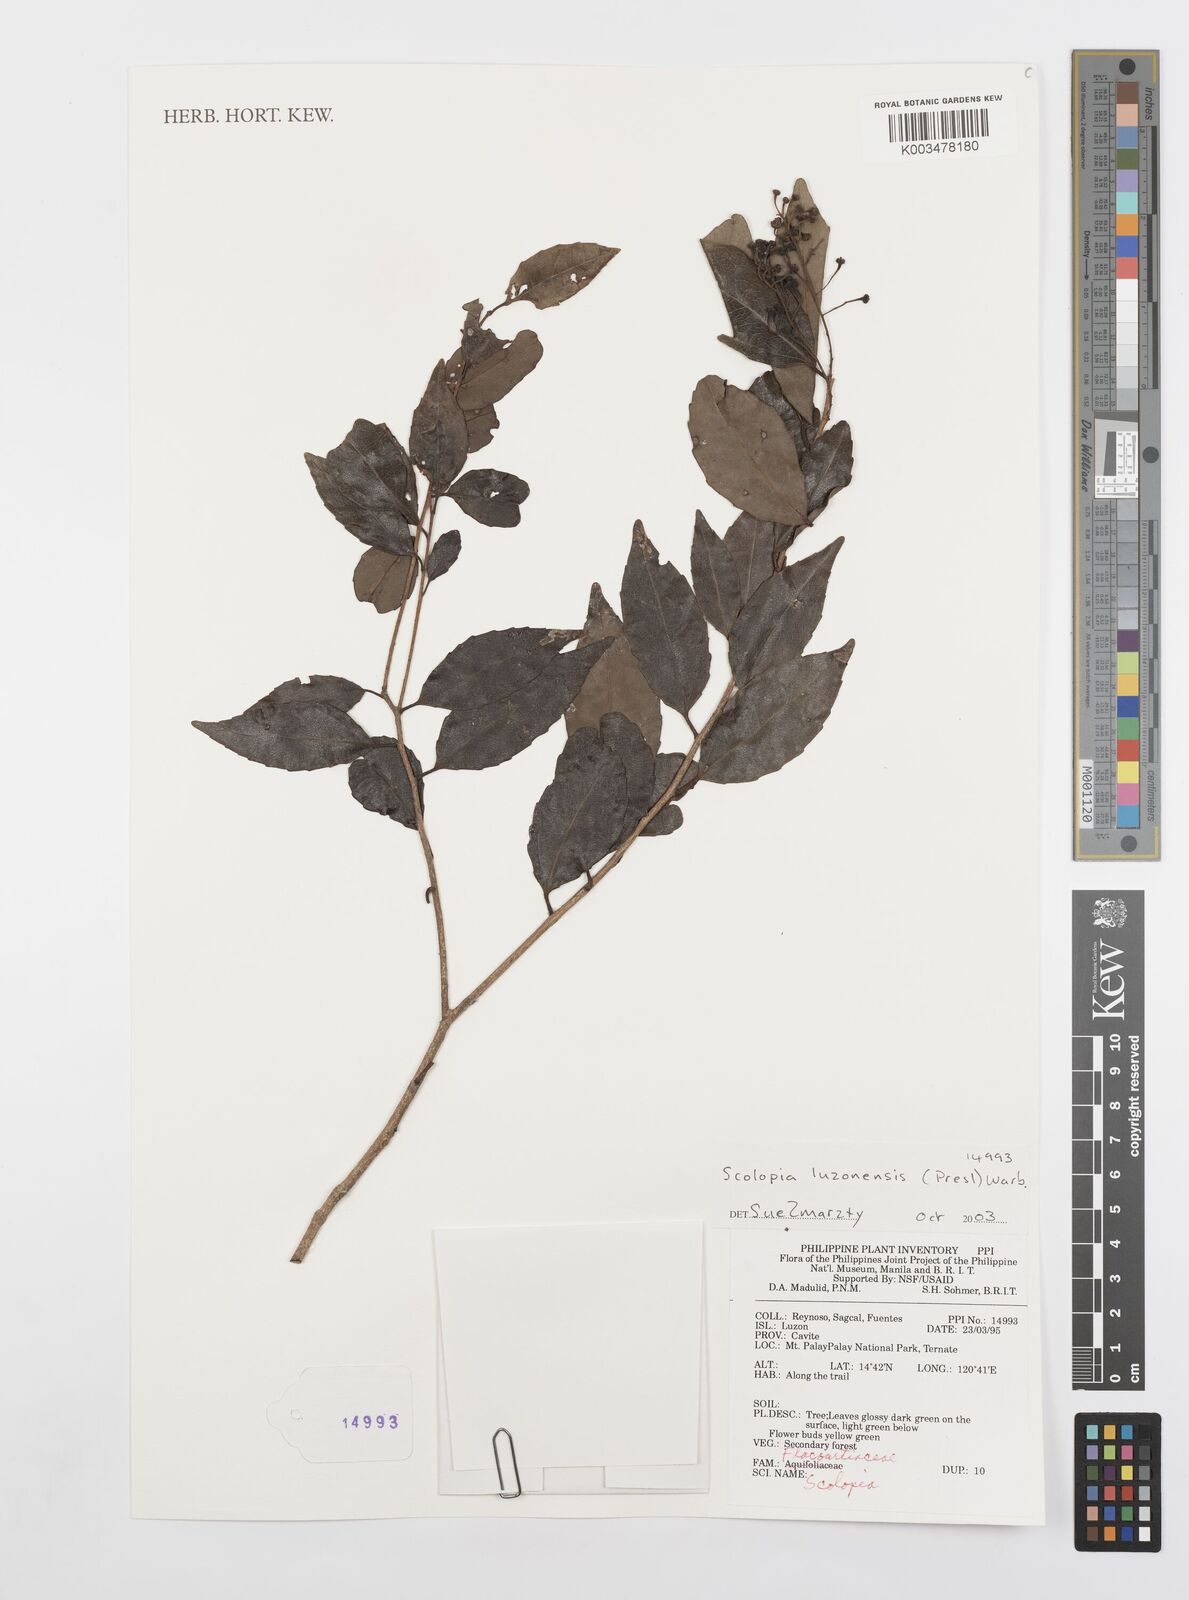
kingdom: Plantae
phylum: Tracheophyta
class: Magnoliopsida
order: Malpighiales
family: Salicaceae
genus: Scolopia
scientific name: Scolopia luzonensis
